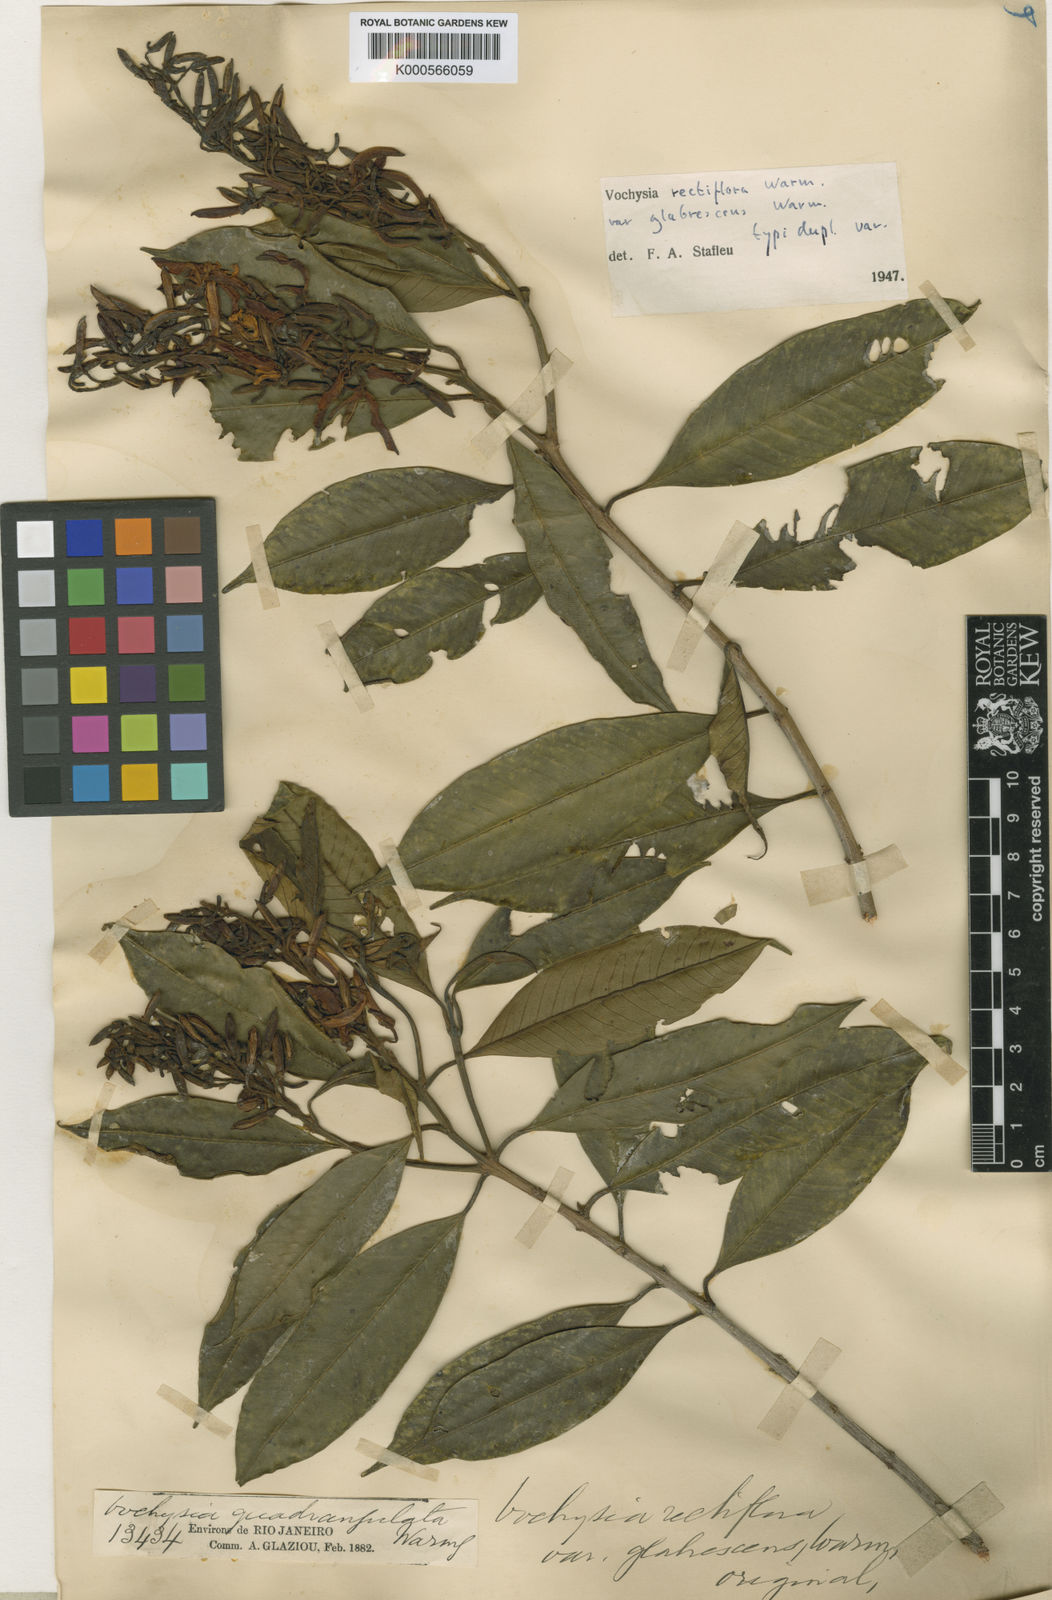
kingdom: Plantae
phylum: Tracheophyta
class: Magnoliopsida
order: Myrtales
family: Vochysiaceae
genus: Vochysia
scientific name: Vochysia rectiflora
